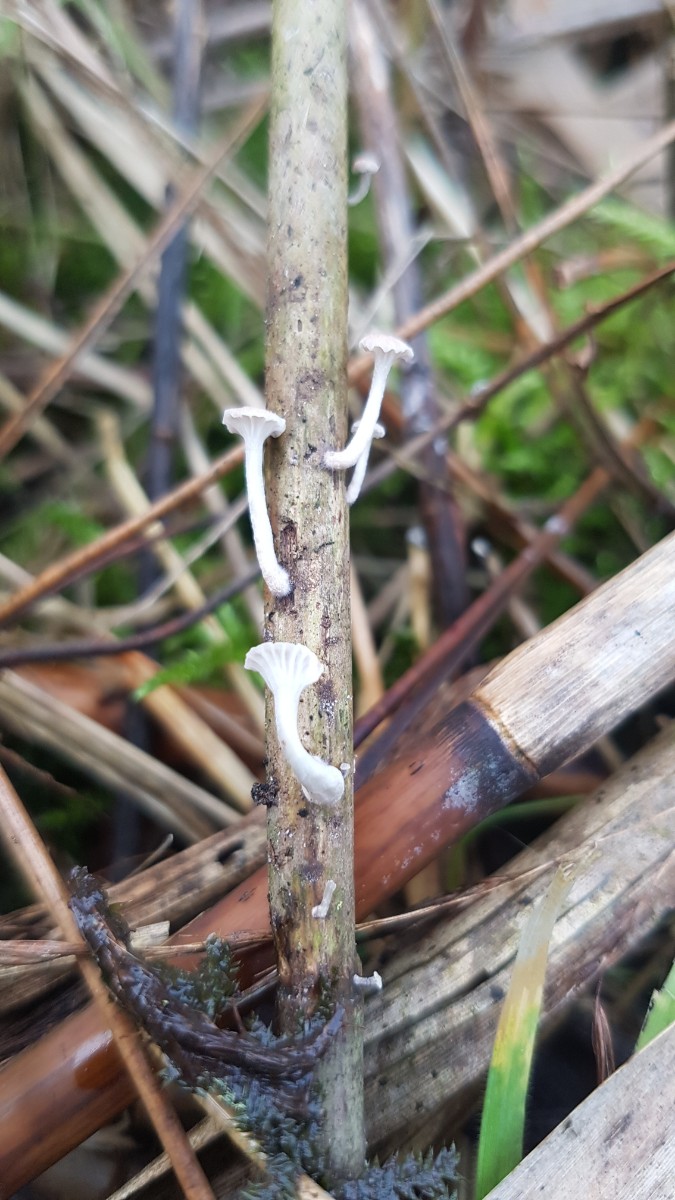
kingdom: Fungi
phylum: Basidiomycota
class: Agaricomycetes
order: Agaricales
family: Mycenaceae
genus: Mycena
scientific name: Mycena belliae
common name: tagrørs-huesvamp
